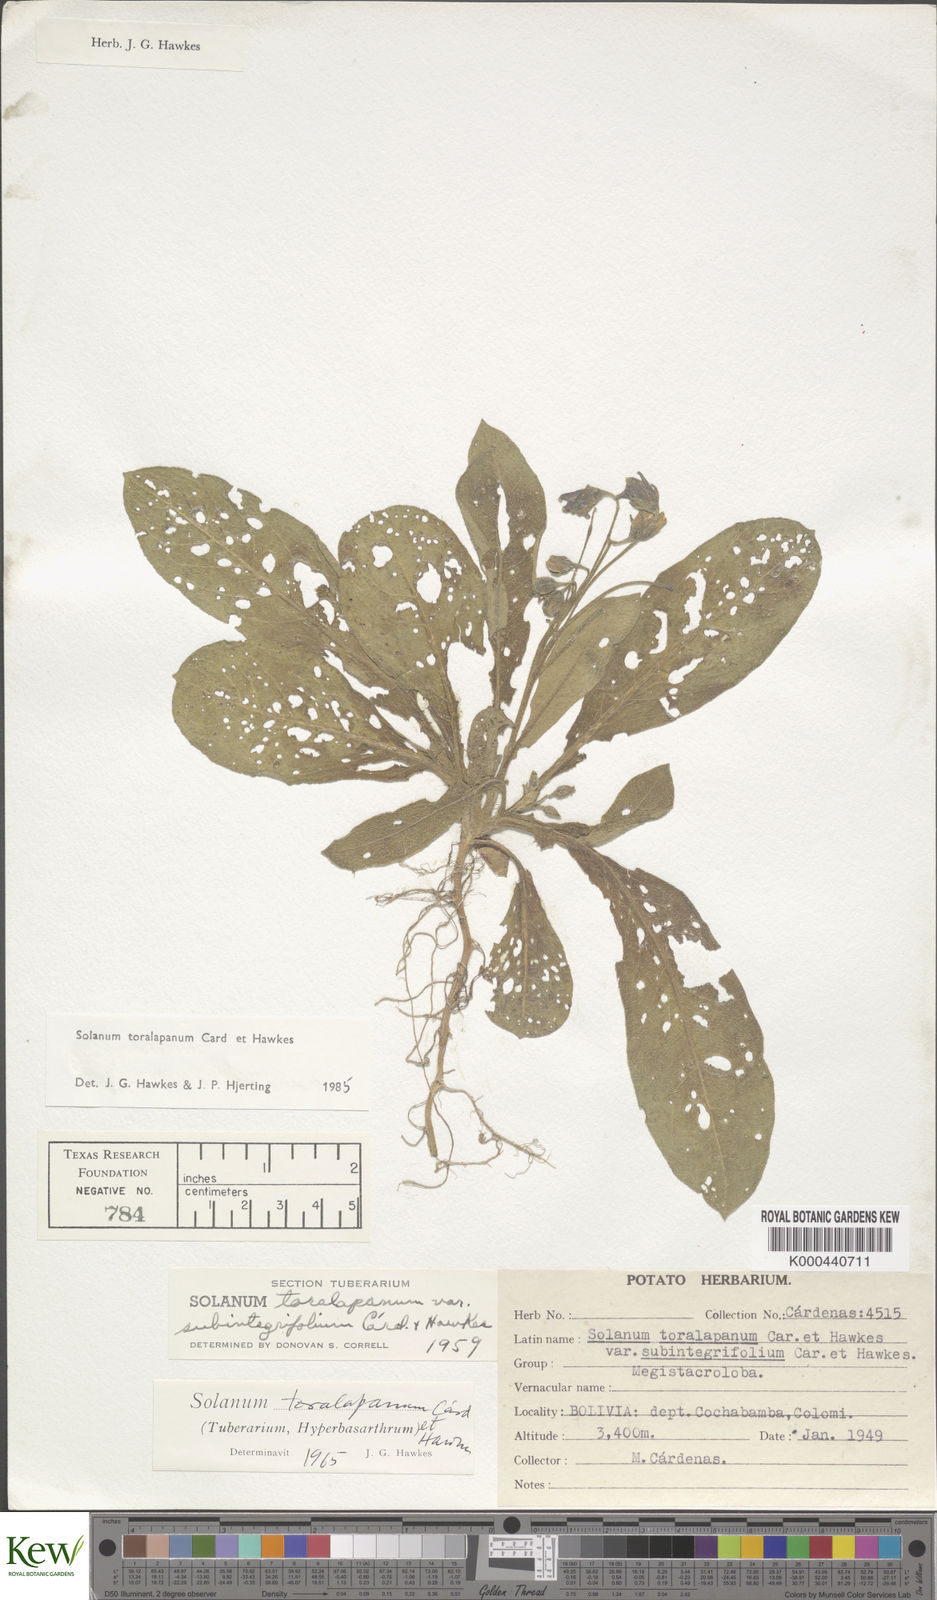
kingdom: Plantae
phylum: Tracheophyta
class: Magnoliopsida
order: Solanales
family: Solanaceae
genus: Solanum
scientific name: Solanum boliviense
